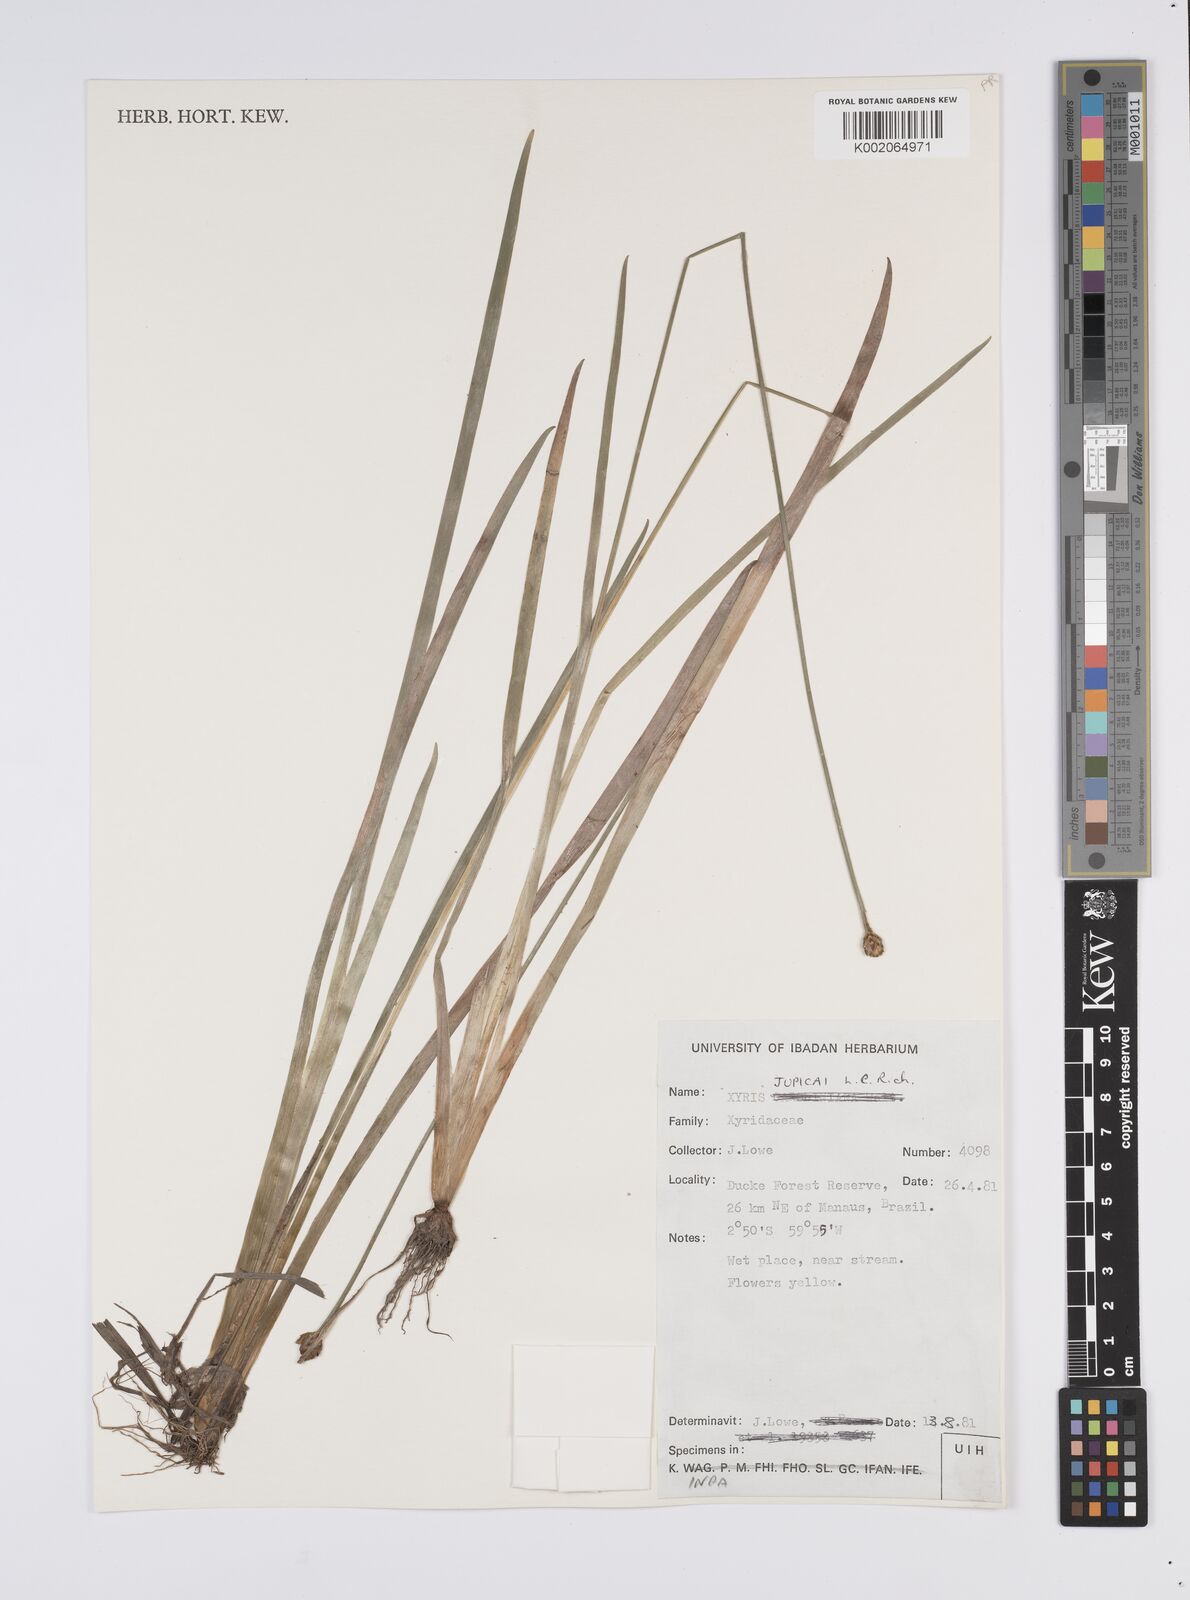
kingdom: Plantae
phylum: Tracheophyta
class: Liliopsida
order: Poales
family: Xyridaceae
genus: Xyris
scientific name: Xyris jupicai
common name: Richard's yelloweyed grass
